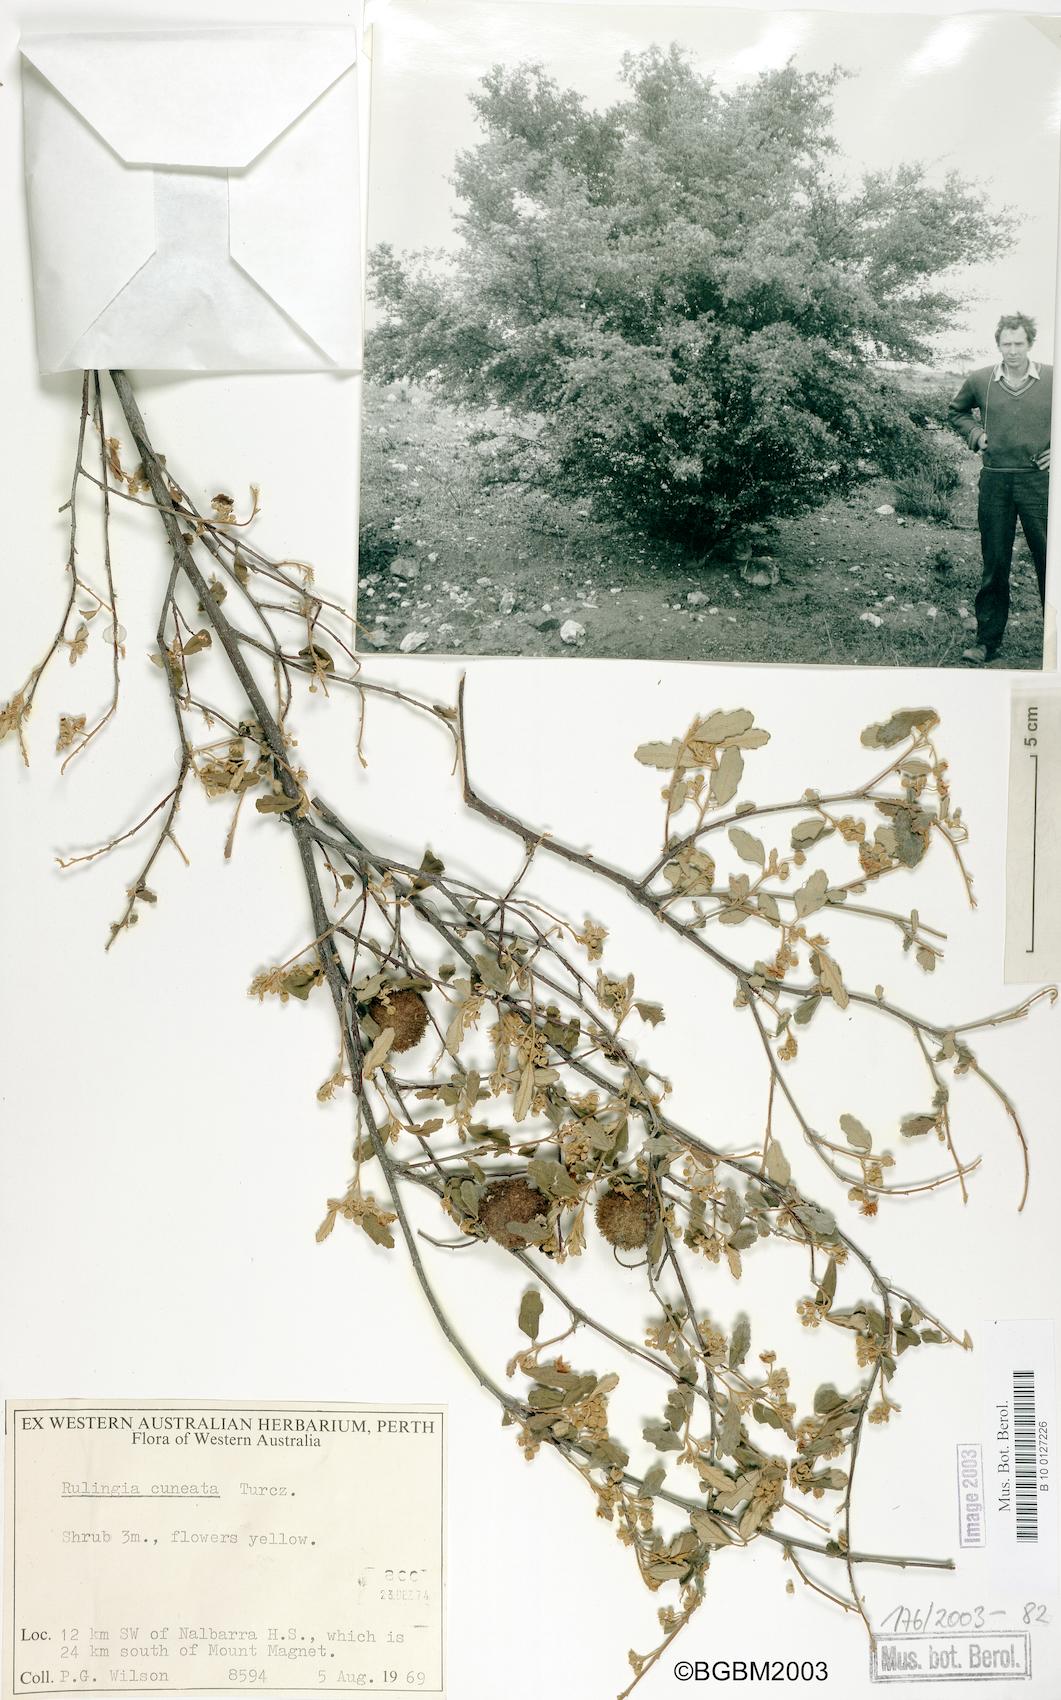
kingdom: Plantae
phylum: Tracheophyta
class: Magnoliopsida
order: Malvales
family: Malvaceae
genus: Androcalva
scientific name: Androcalva cuneata
